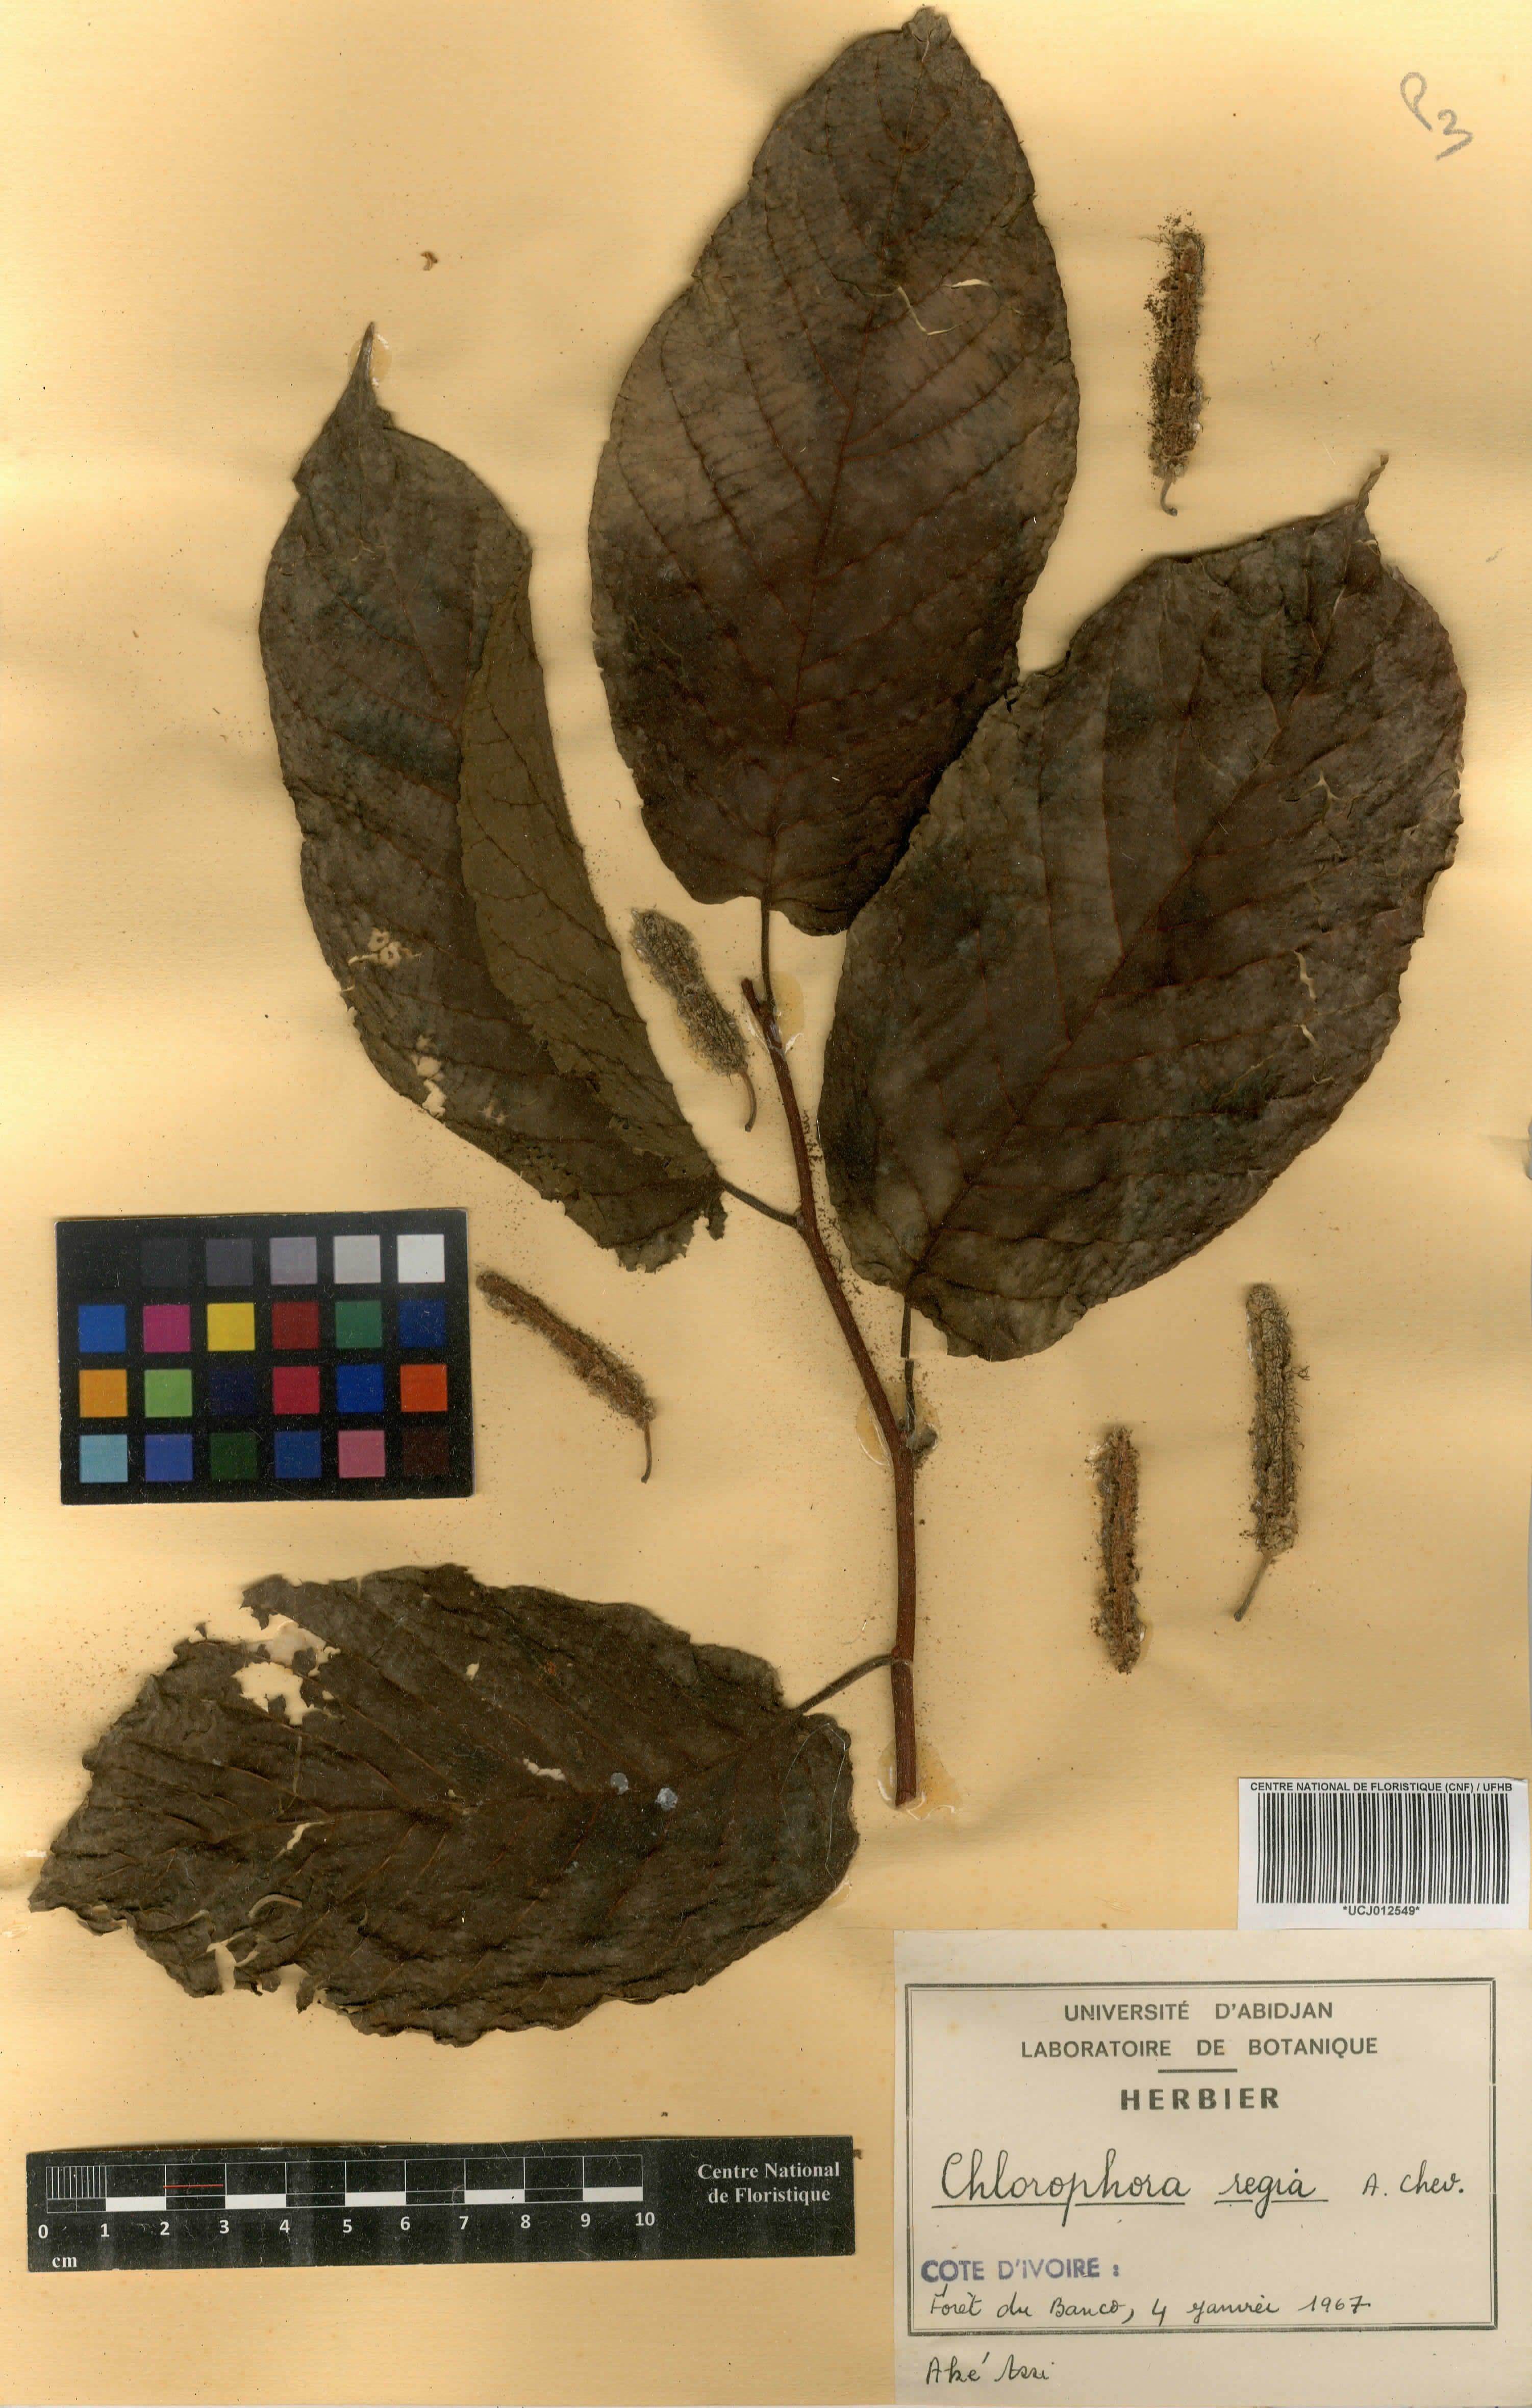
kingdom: Plantae
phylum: Tracheophyta
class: Magnoliopsida
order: Rosales
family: Moraceae
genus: Milicia
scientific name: Milicia regia
